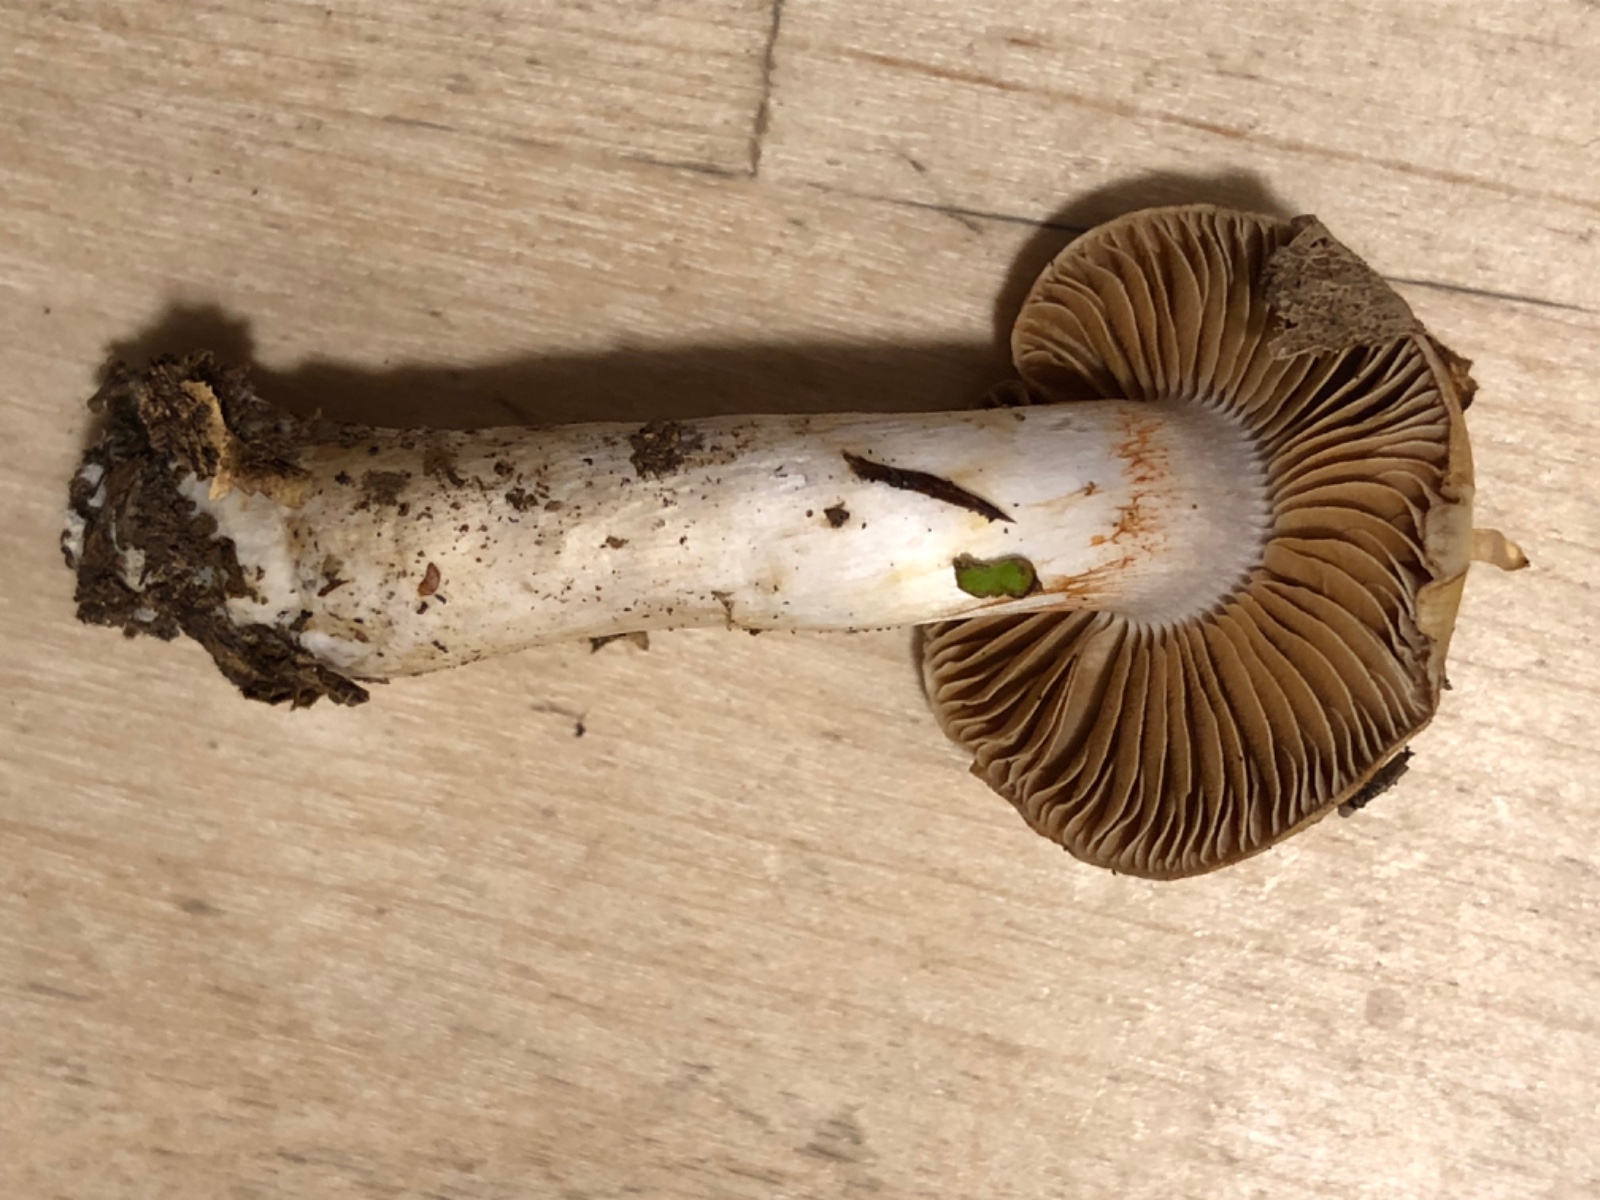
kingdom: Fungi
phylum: Basidiomycota
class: Agaricomycetes
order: Agaricales
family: Cortinariaceae
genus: Cortinarius
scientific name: Cortinarius
